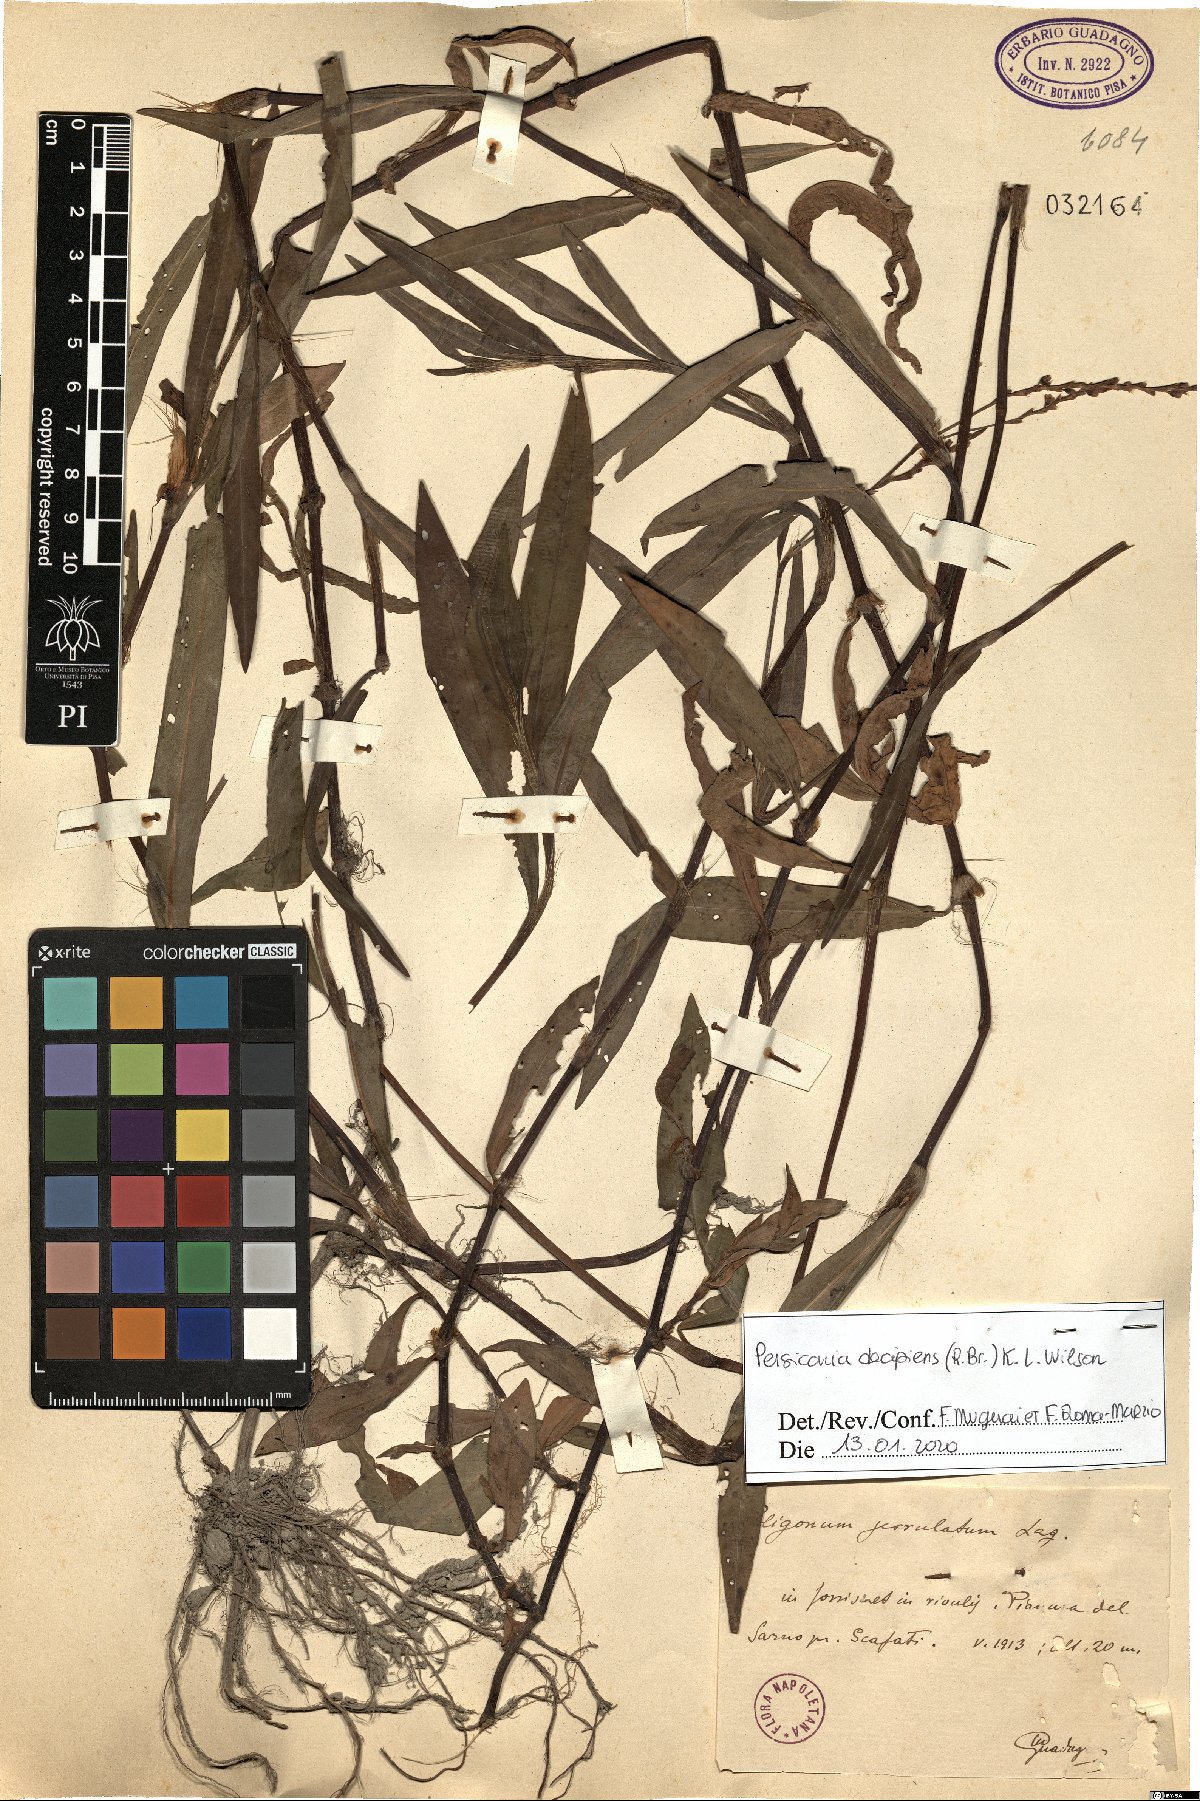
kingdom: Plantae
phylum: Tracheophyta
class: Magnoliopsida
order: Caryophyllales
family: Polygonaceae
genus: Persicaria
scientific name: Persicaria decipiens
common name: Willow-weed
